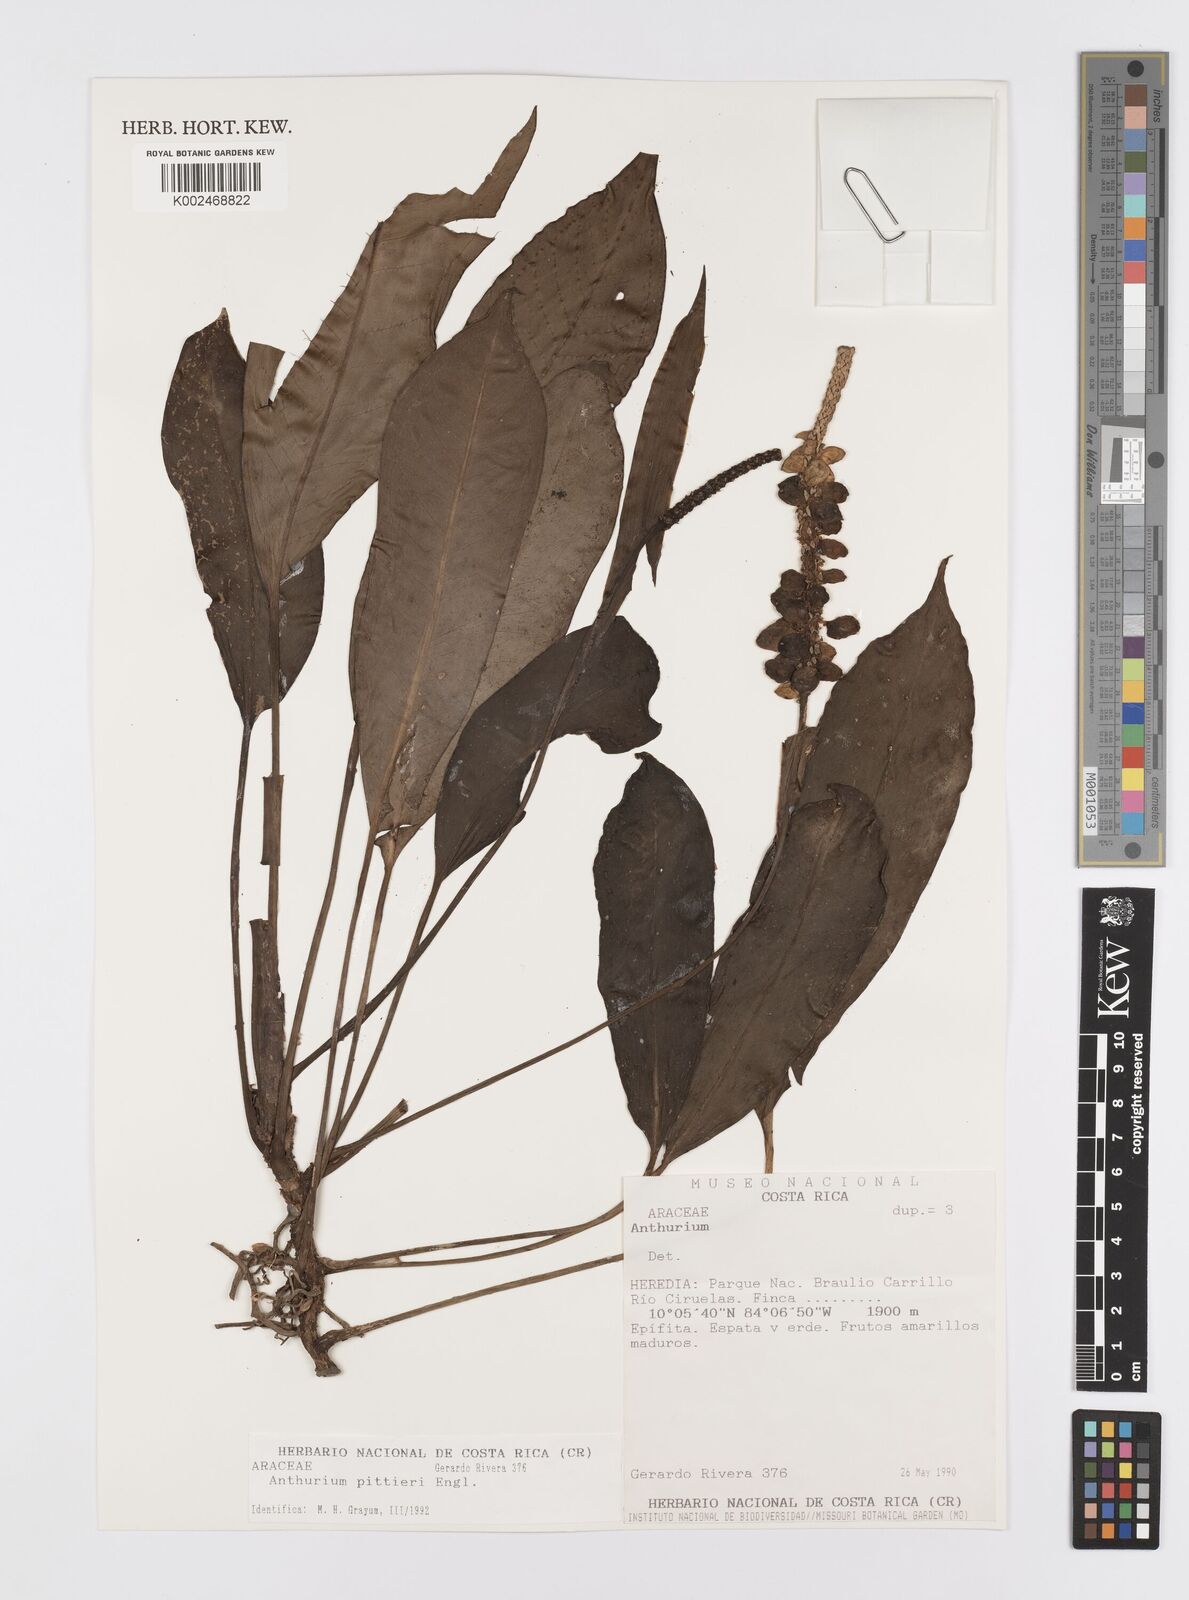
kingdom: Plantae
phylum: Tracheophyta
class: Liliopsida
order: Alismatales
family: Araceae
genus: Anthurium
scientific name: Anthurium pittieri
